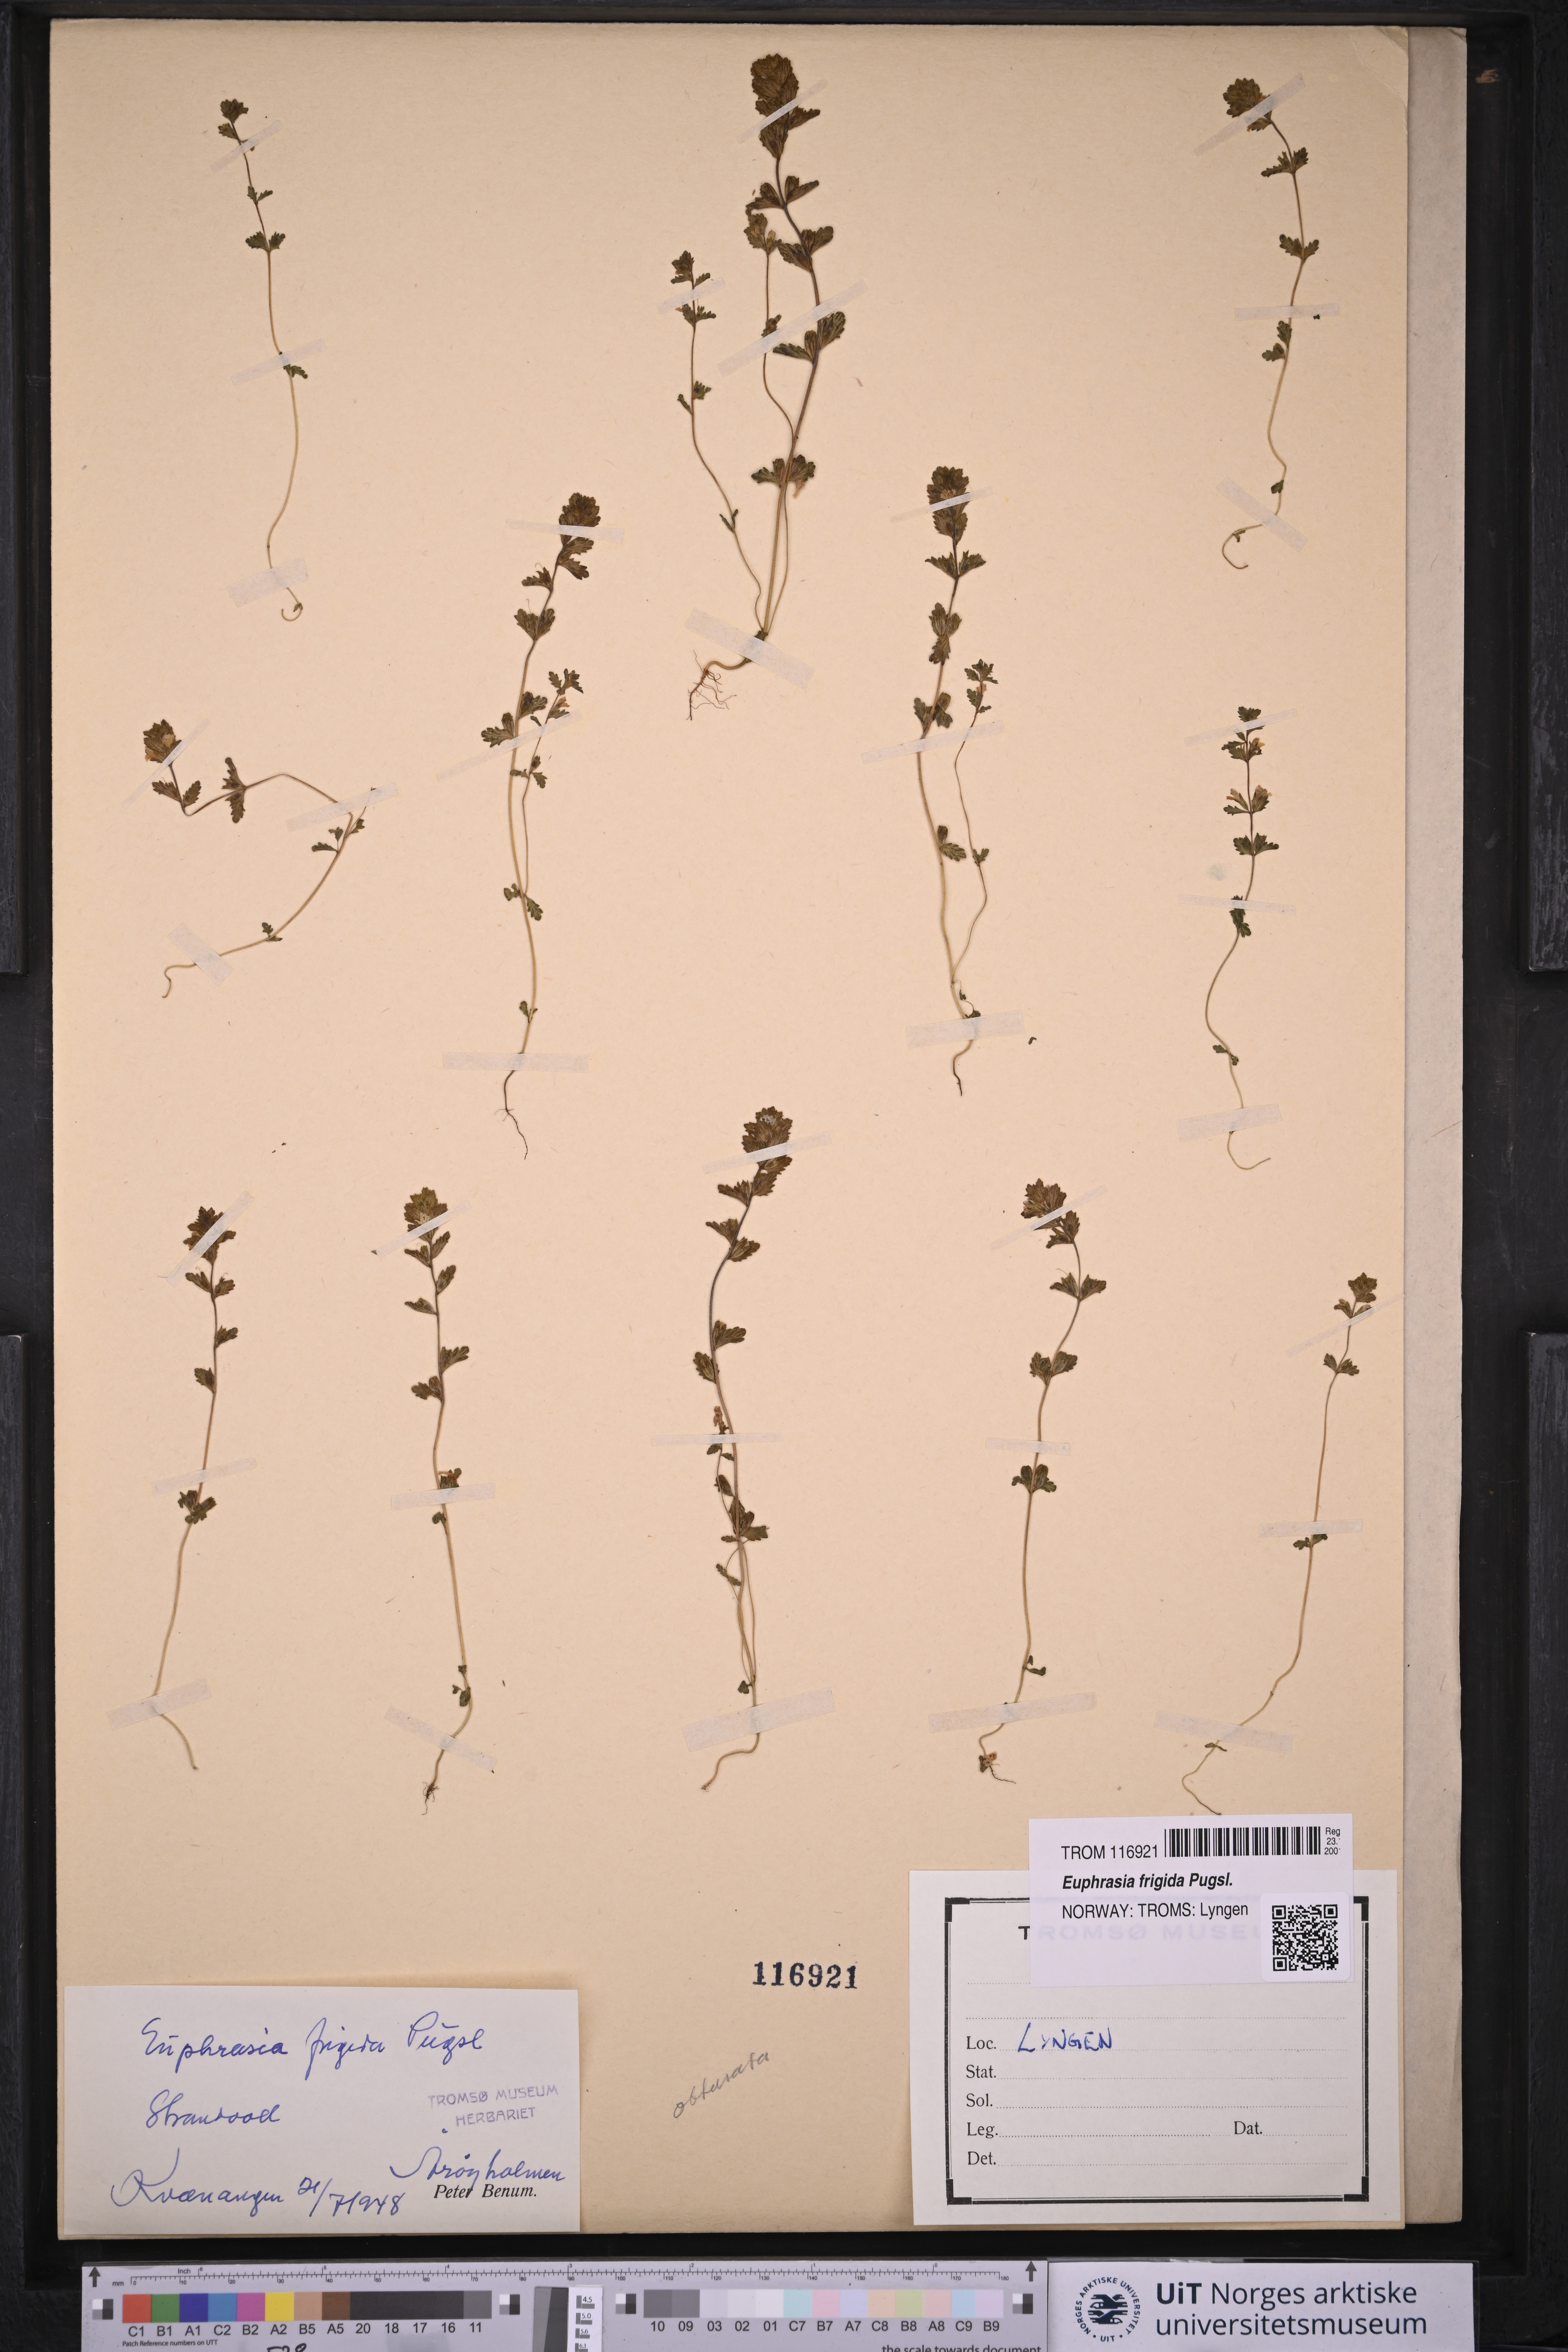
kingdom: Plantae
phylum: Tracheophyta
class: Magnoliopsida
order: Lamiales
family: Orobanchaceae
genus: Euphrasia
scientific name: Euphrasia frigida
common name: An eyebright
